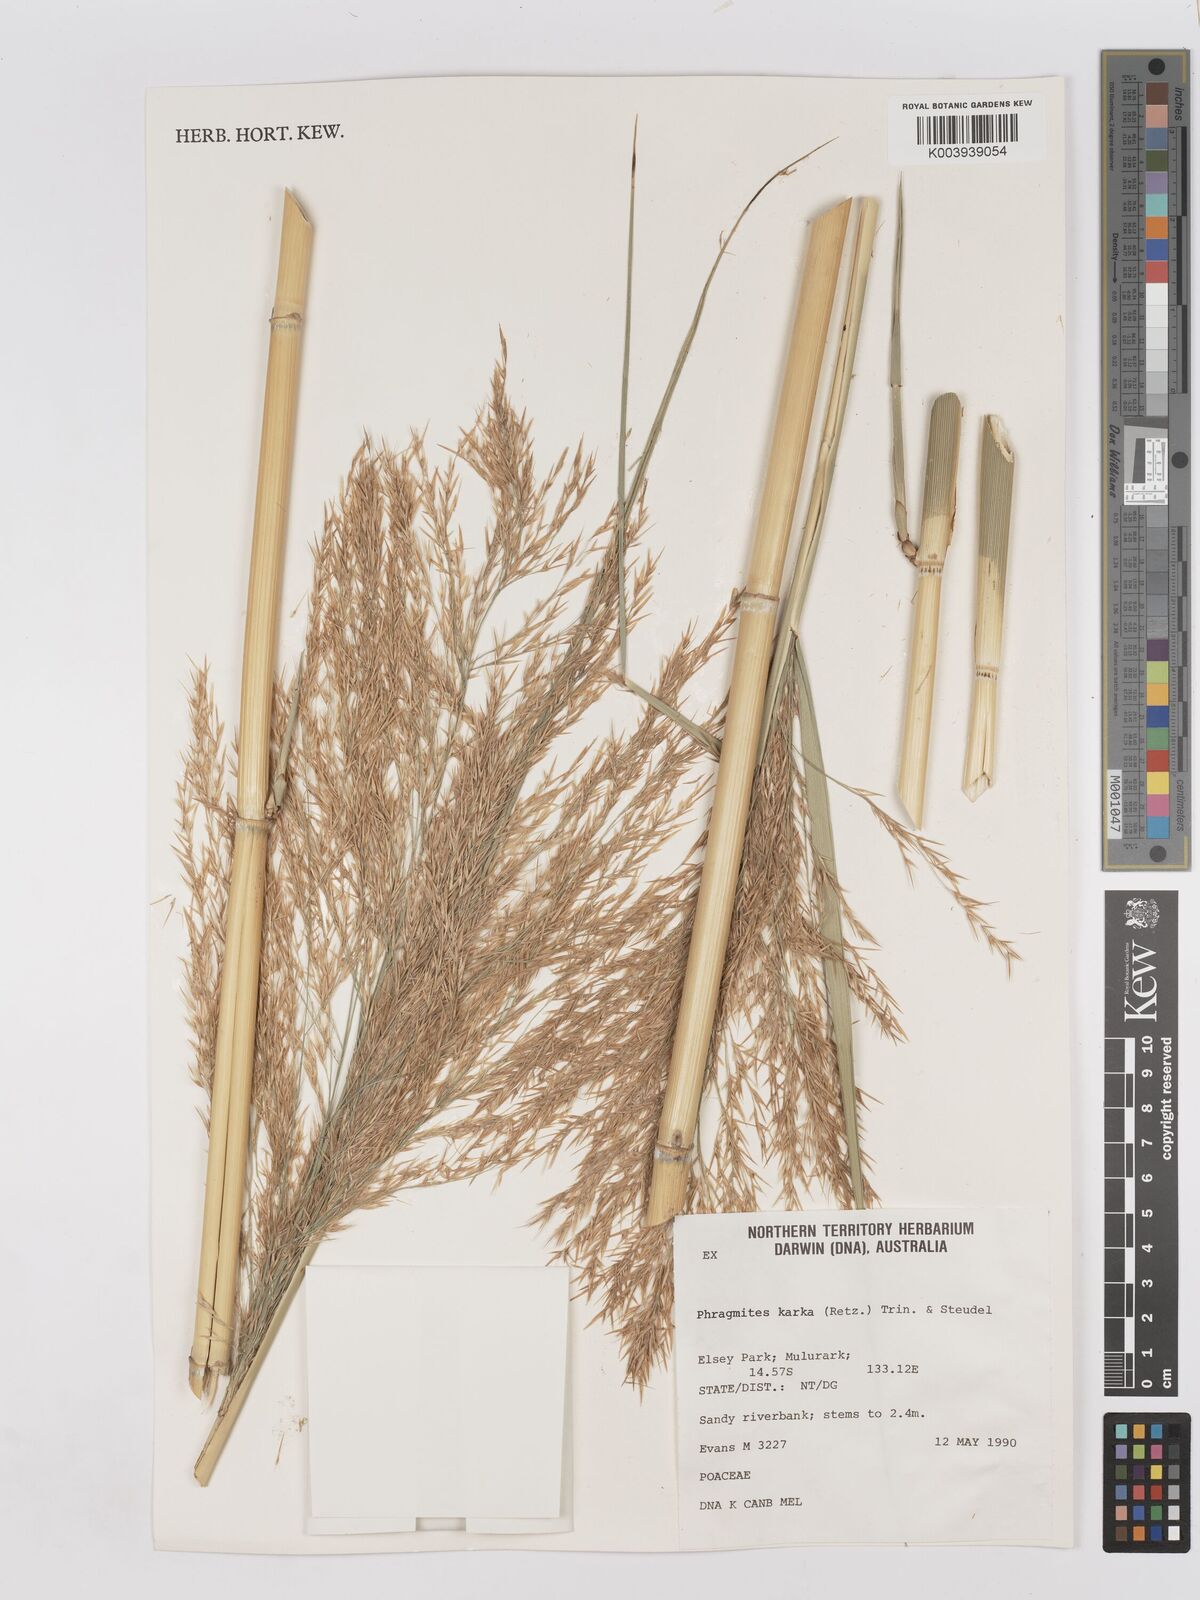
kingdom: Plantae
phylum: Tracheophyta
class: Liliopsida
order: Poales
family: Poaceae
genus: Phragmites
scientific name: Phragmites karka
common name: Tropical reed
